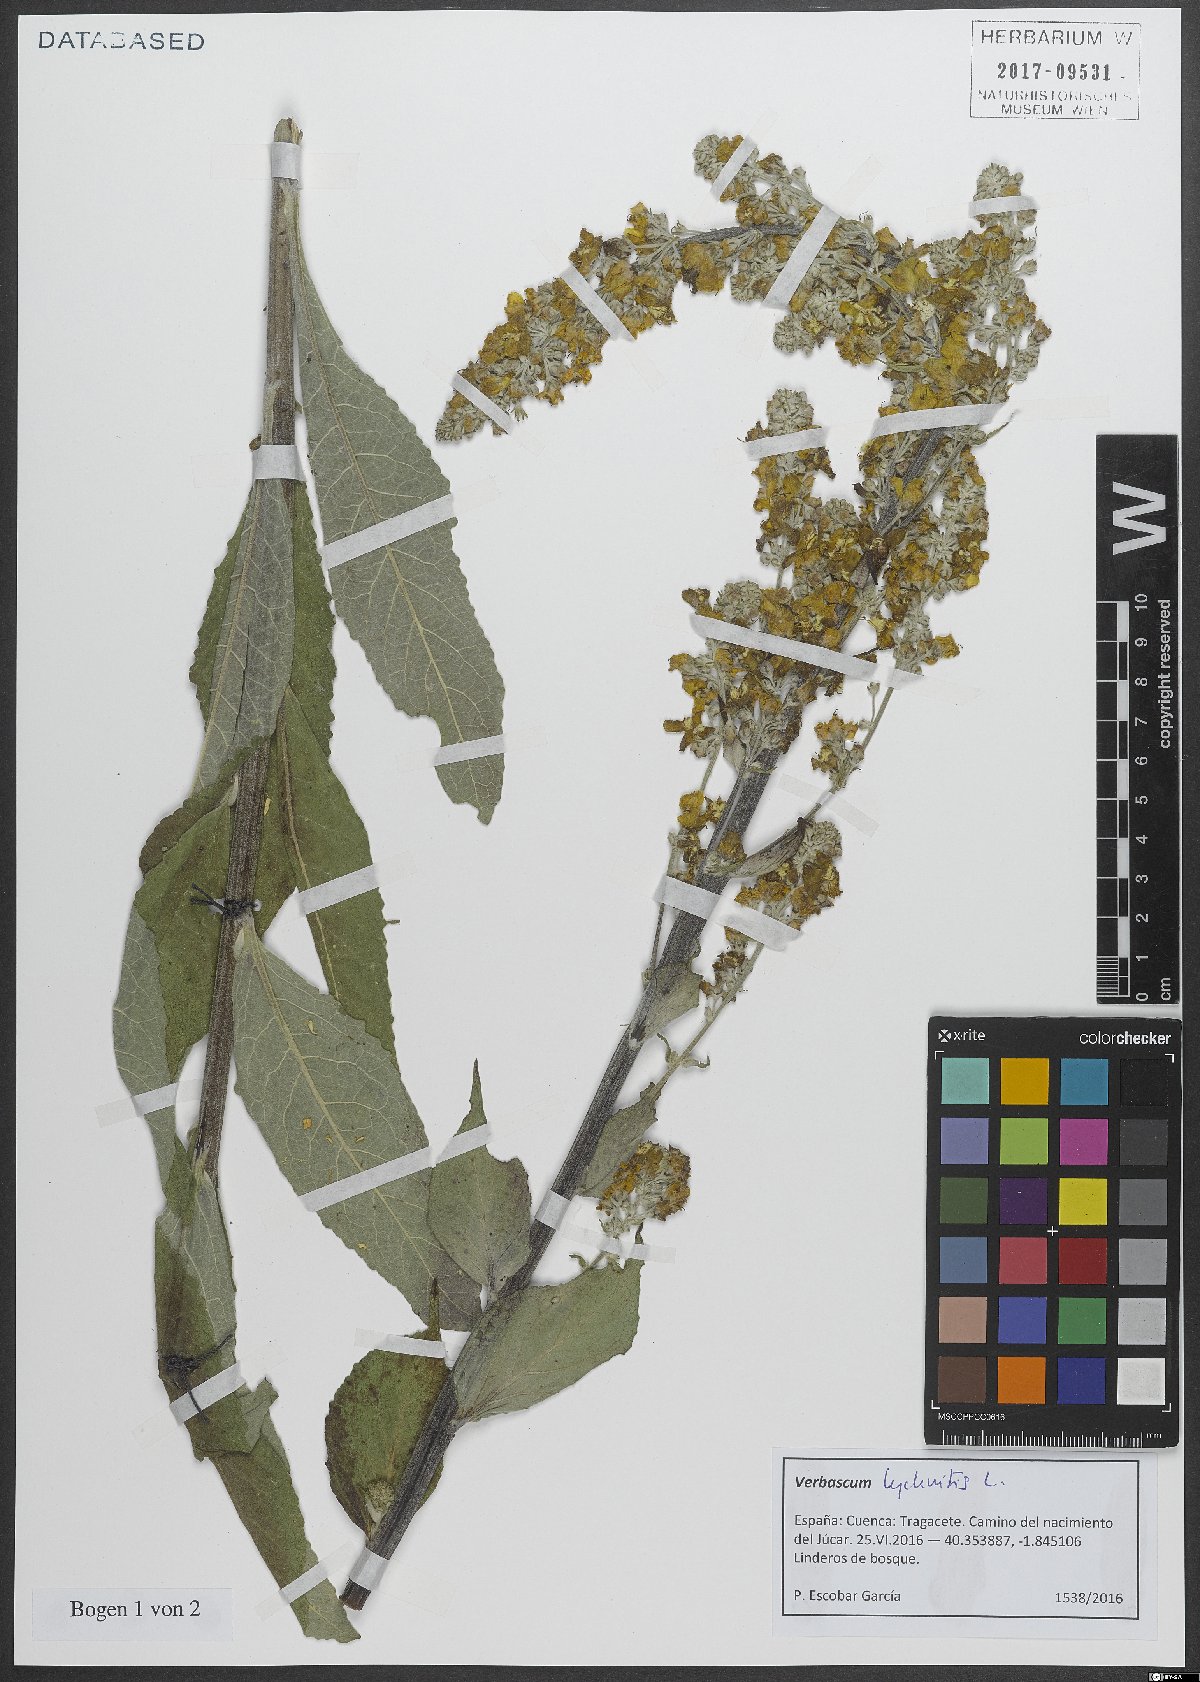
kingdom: Plantae
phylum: Tracheophyta
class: Magnoliopsida
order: Lamiales
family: Scrophulariaceae
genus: Verbascum
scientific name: Verbascum lychnitis
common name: White mullein
